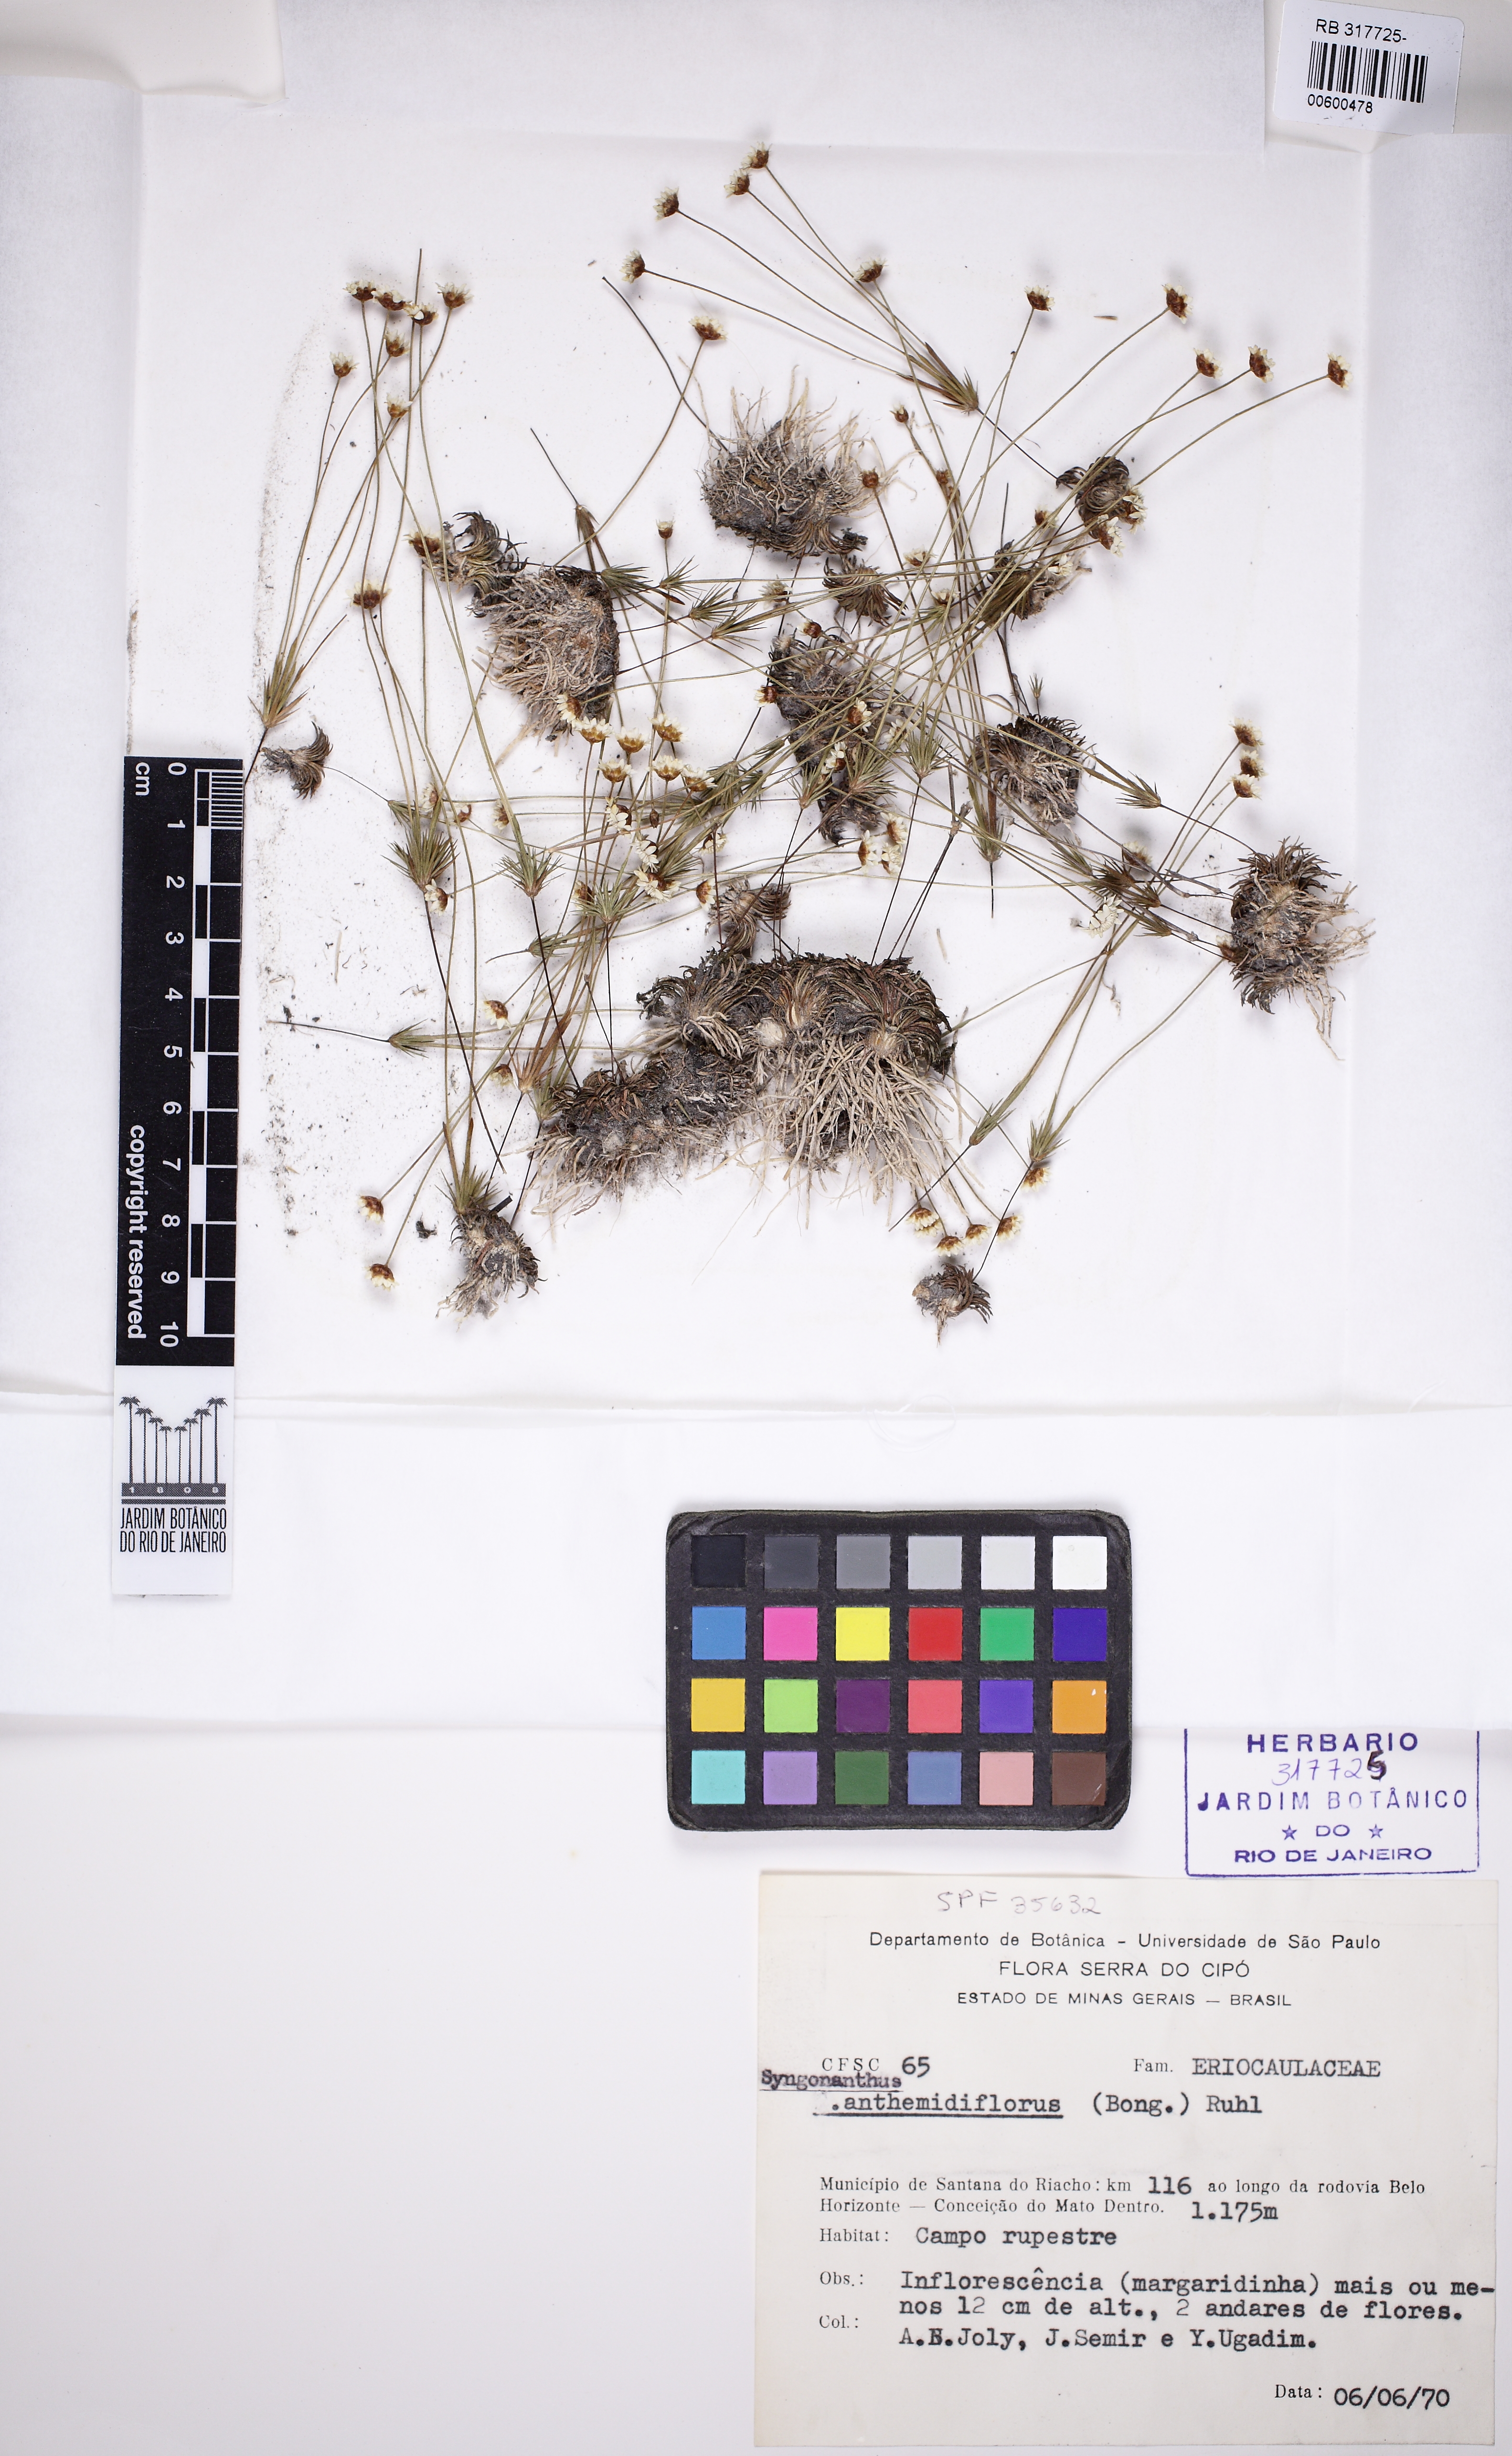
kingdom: Plantae
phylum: Tracheophyta
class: Liliopsida
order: Poales
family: Eriocaulaceae
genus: Syngonanthus
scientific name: Syngonanthus anthemidiflorus
